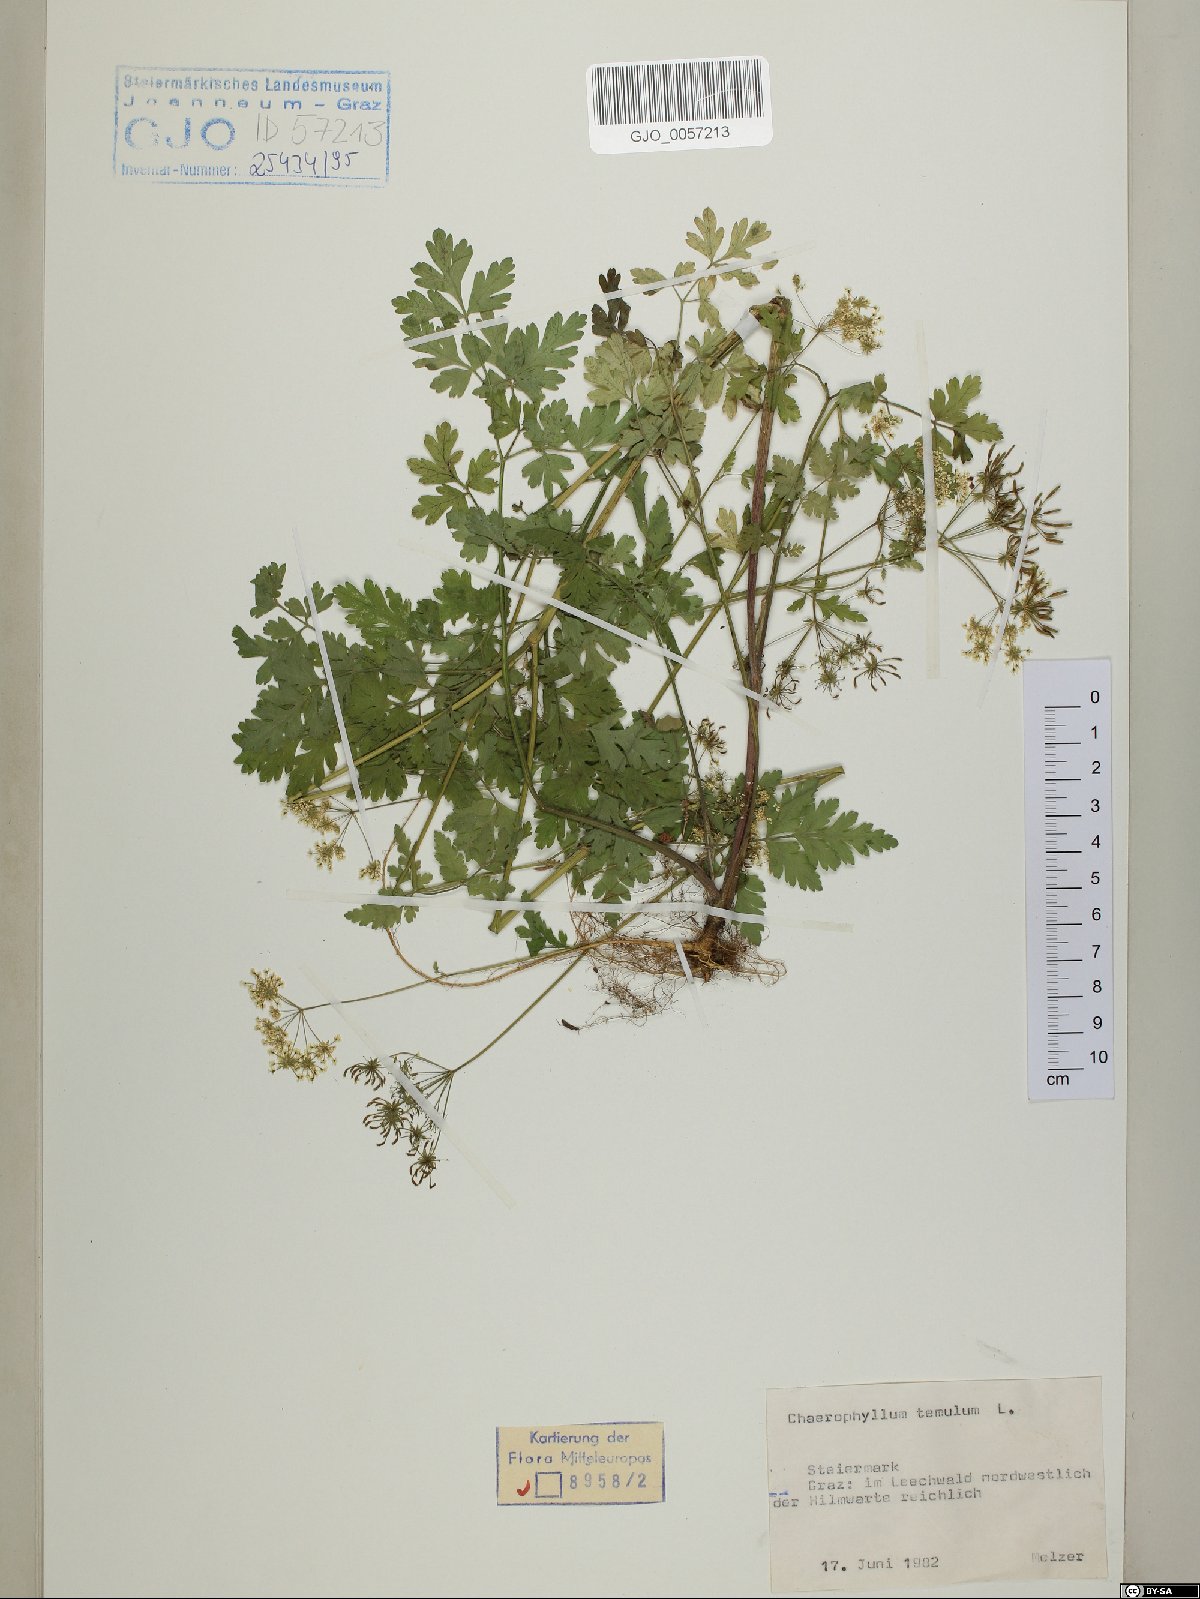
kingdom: Plantae
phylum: Tracheophyta
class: Magnoliopsida
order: Apiales
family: Apiaceae
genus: Chaerophyllum
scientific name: Chaerophyllum temulum
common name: Rough chervil
